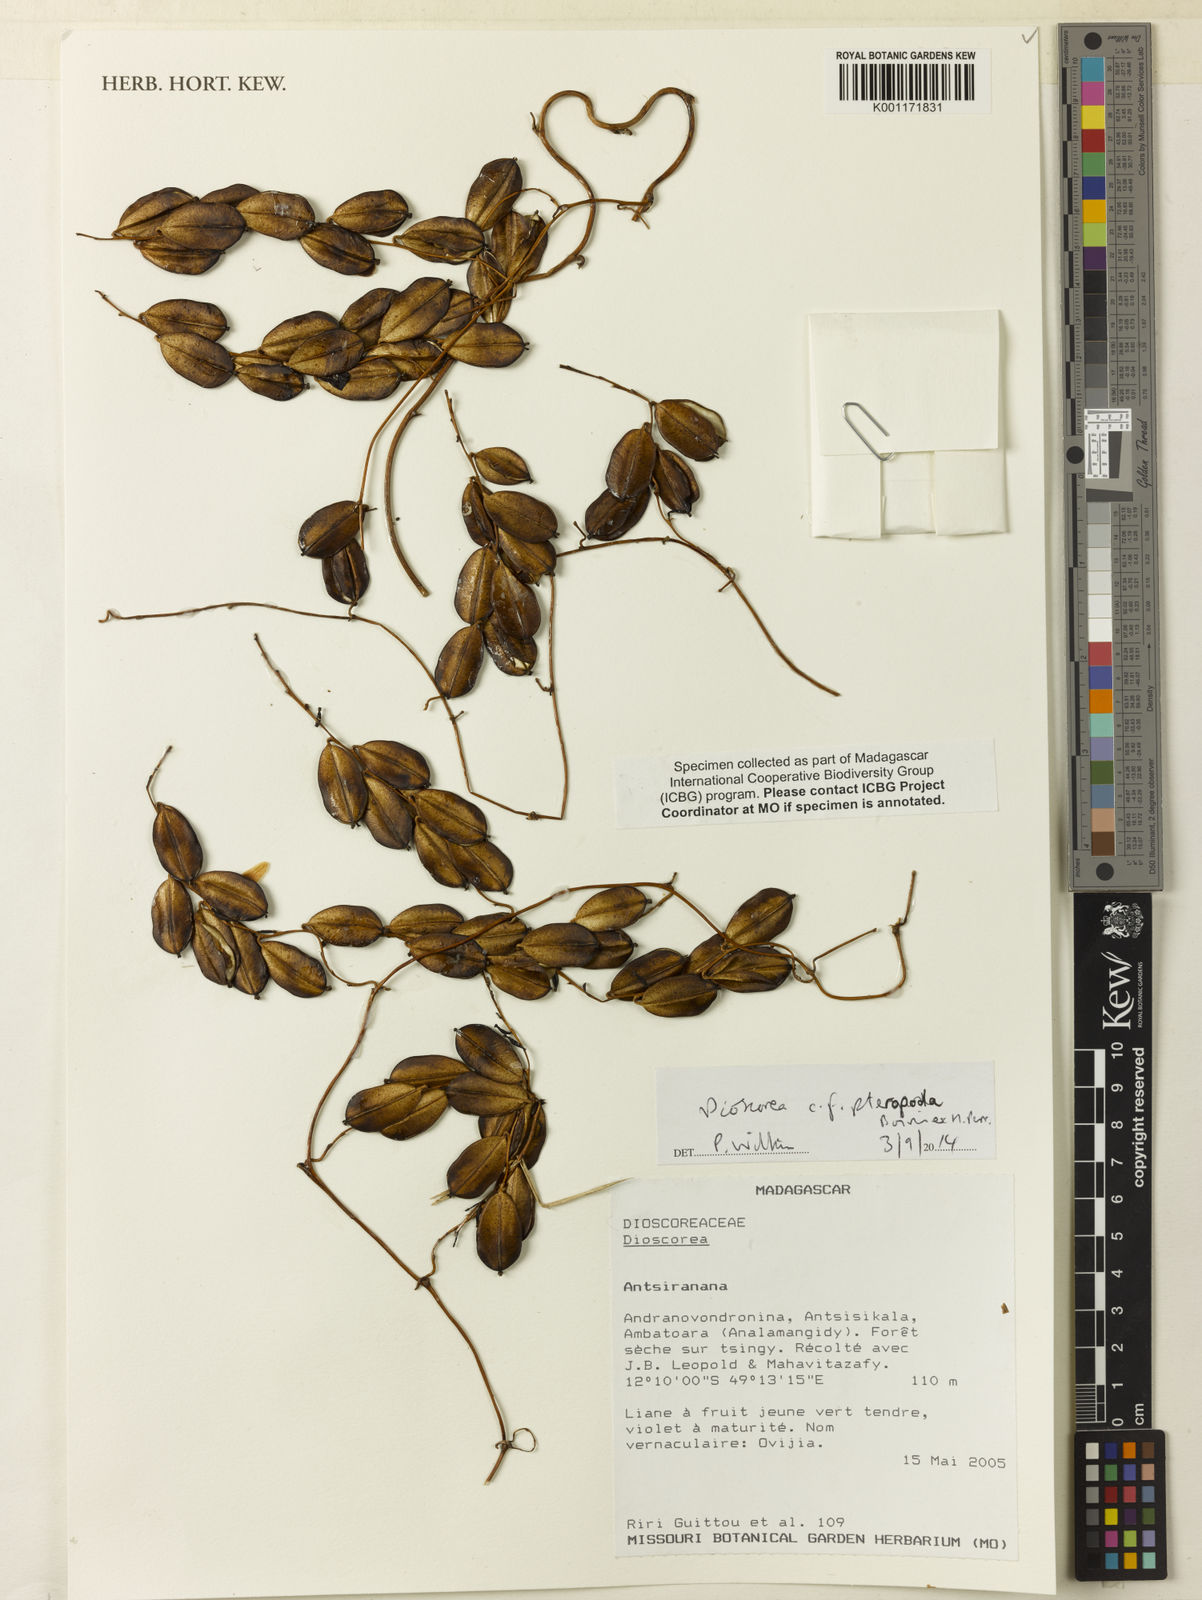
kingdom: Plantae
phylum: Tracheophyta
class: Liliopsida
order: Dioscoreales
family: Dioscoreaceae
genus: Dioscorea
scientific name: Dioscorea pteropoda
